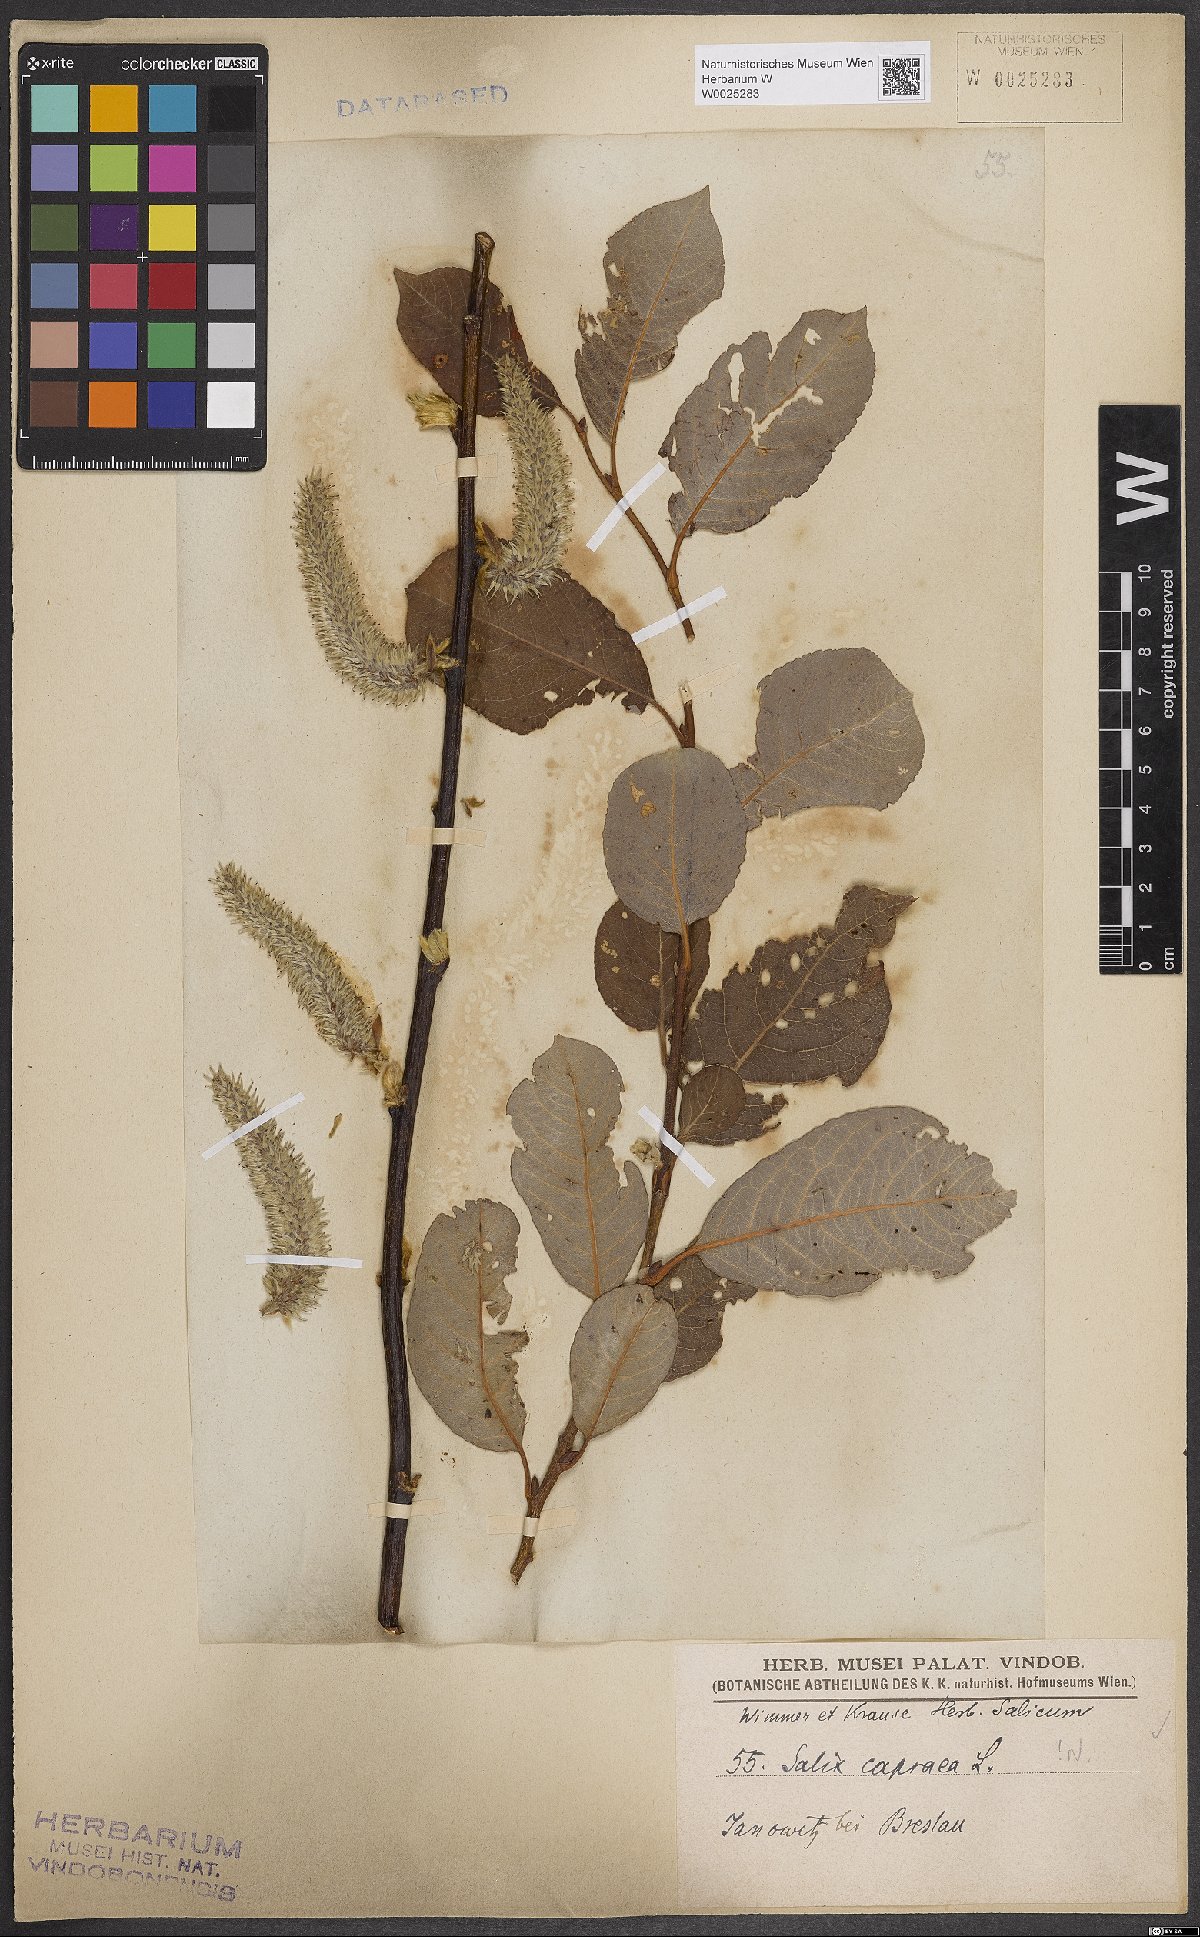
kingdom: Plantae
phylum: Tracheophyta
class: Magnoliopsida
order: Malpighiales
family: Salicaceae
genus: Salix
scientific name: Salix caprea
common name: Goat willow
